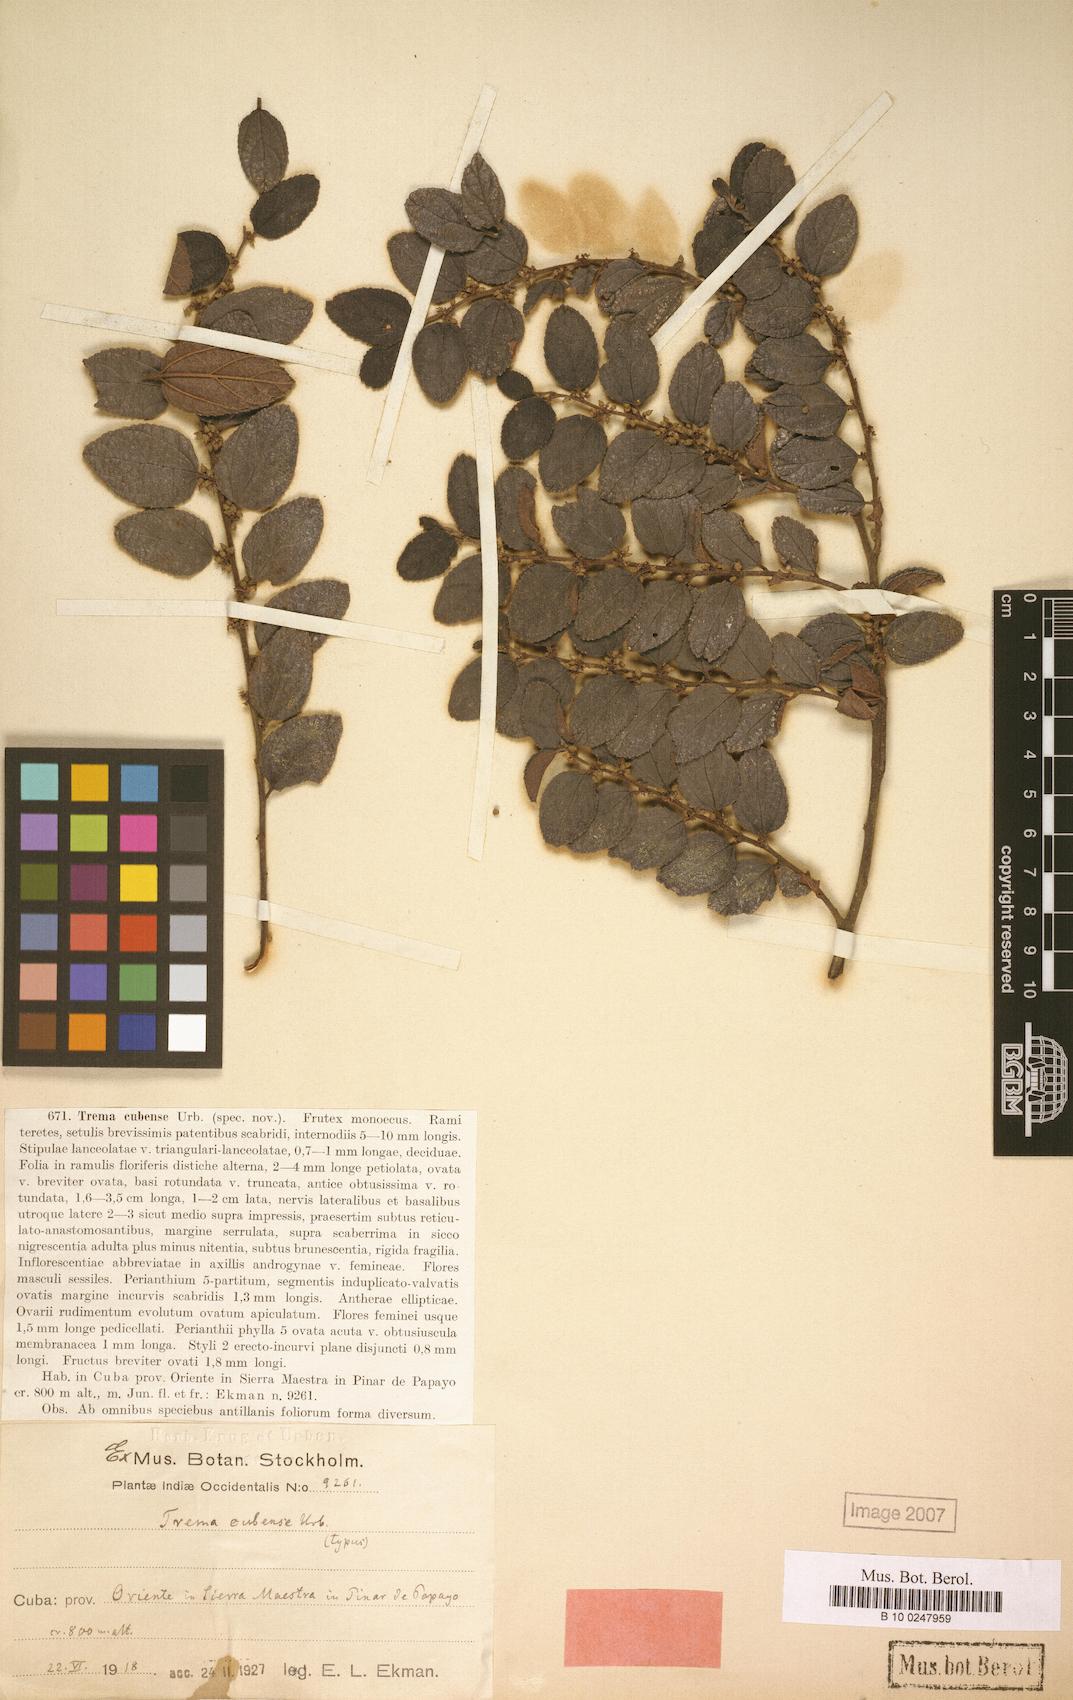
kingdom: Plantae
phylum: Tracheophyta
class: Magnoliopsida
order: Rosales
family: Cannabaceae
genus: Trema
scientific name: Trema cubense
